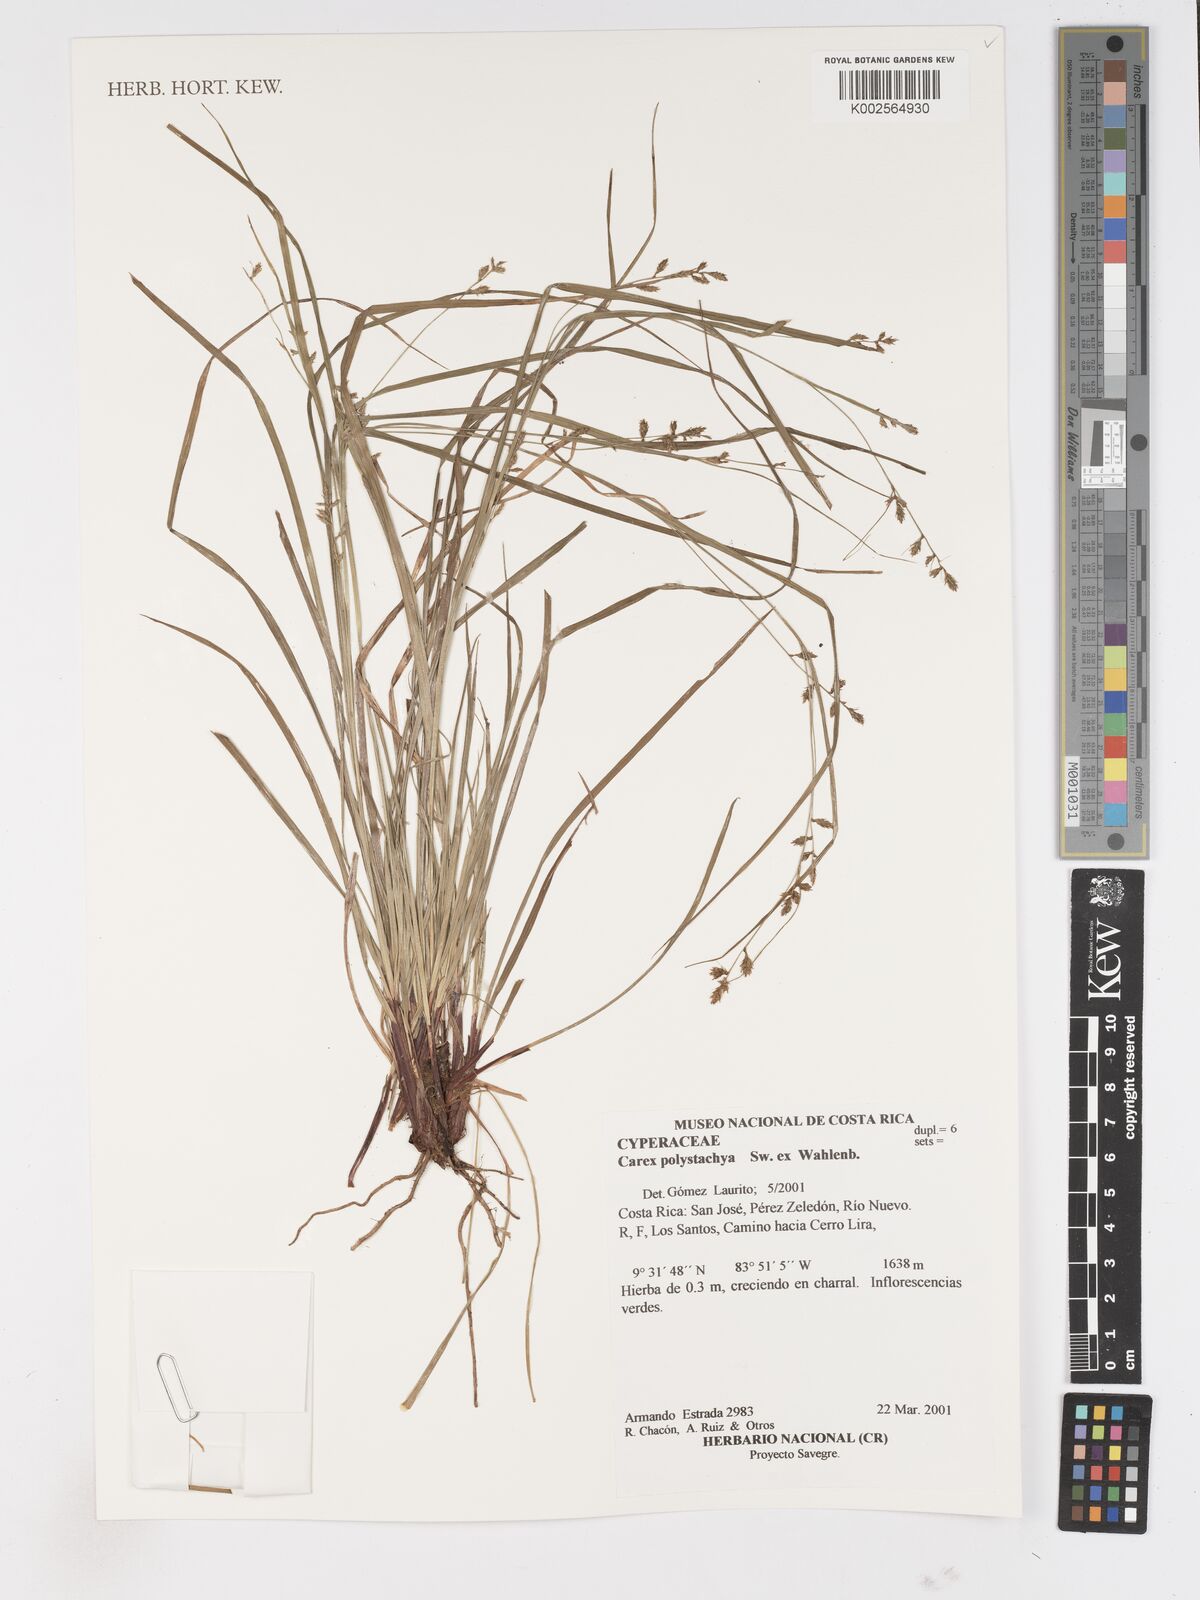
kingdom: Plantae
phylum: Tracheophyta
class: Liliopsida
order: Poales
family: Cyperaceae
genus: Carex
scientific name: Carex polystachya
